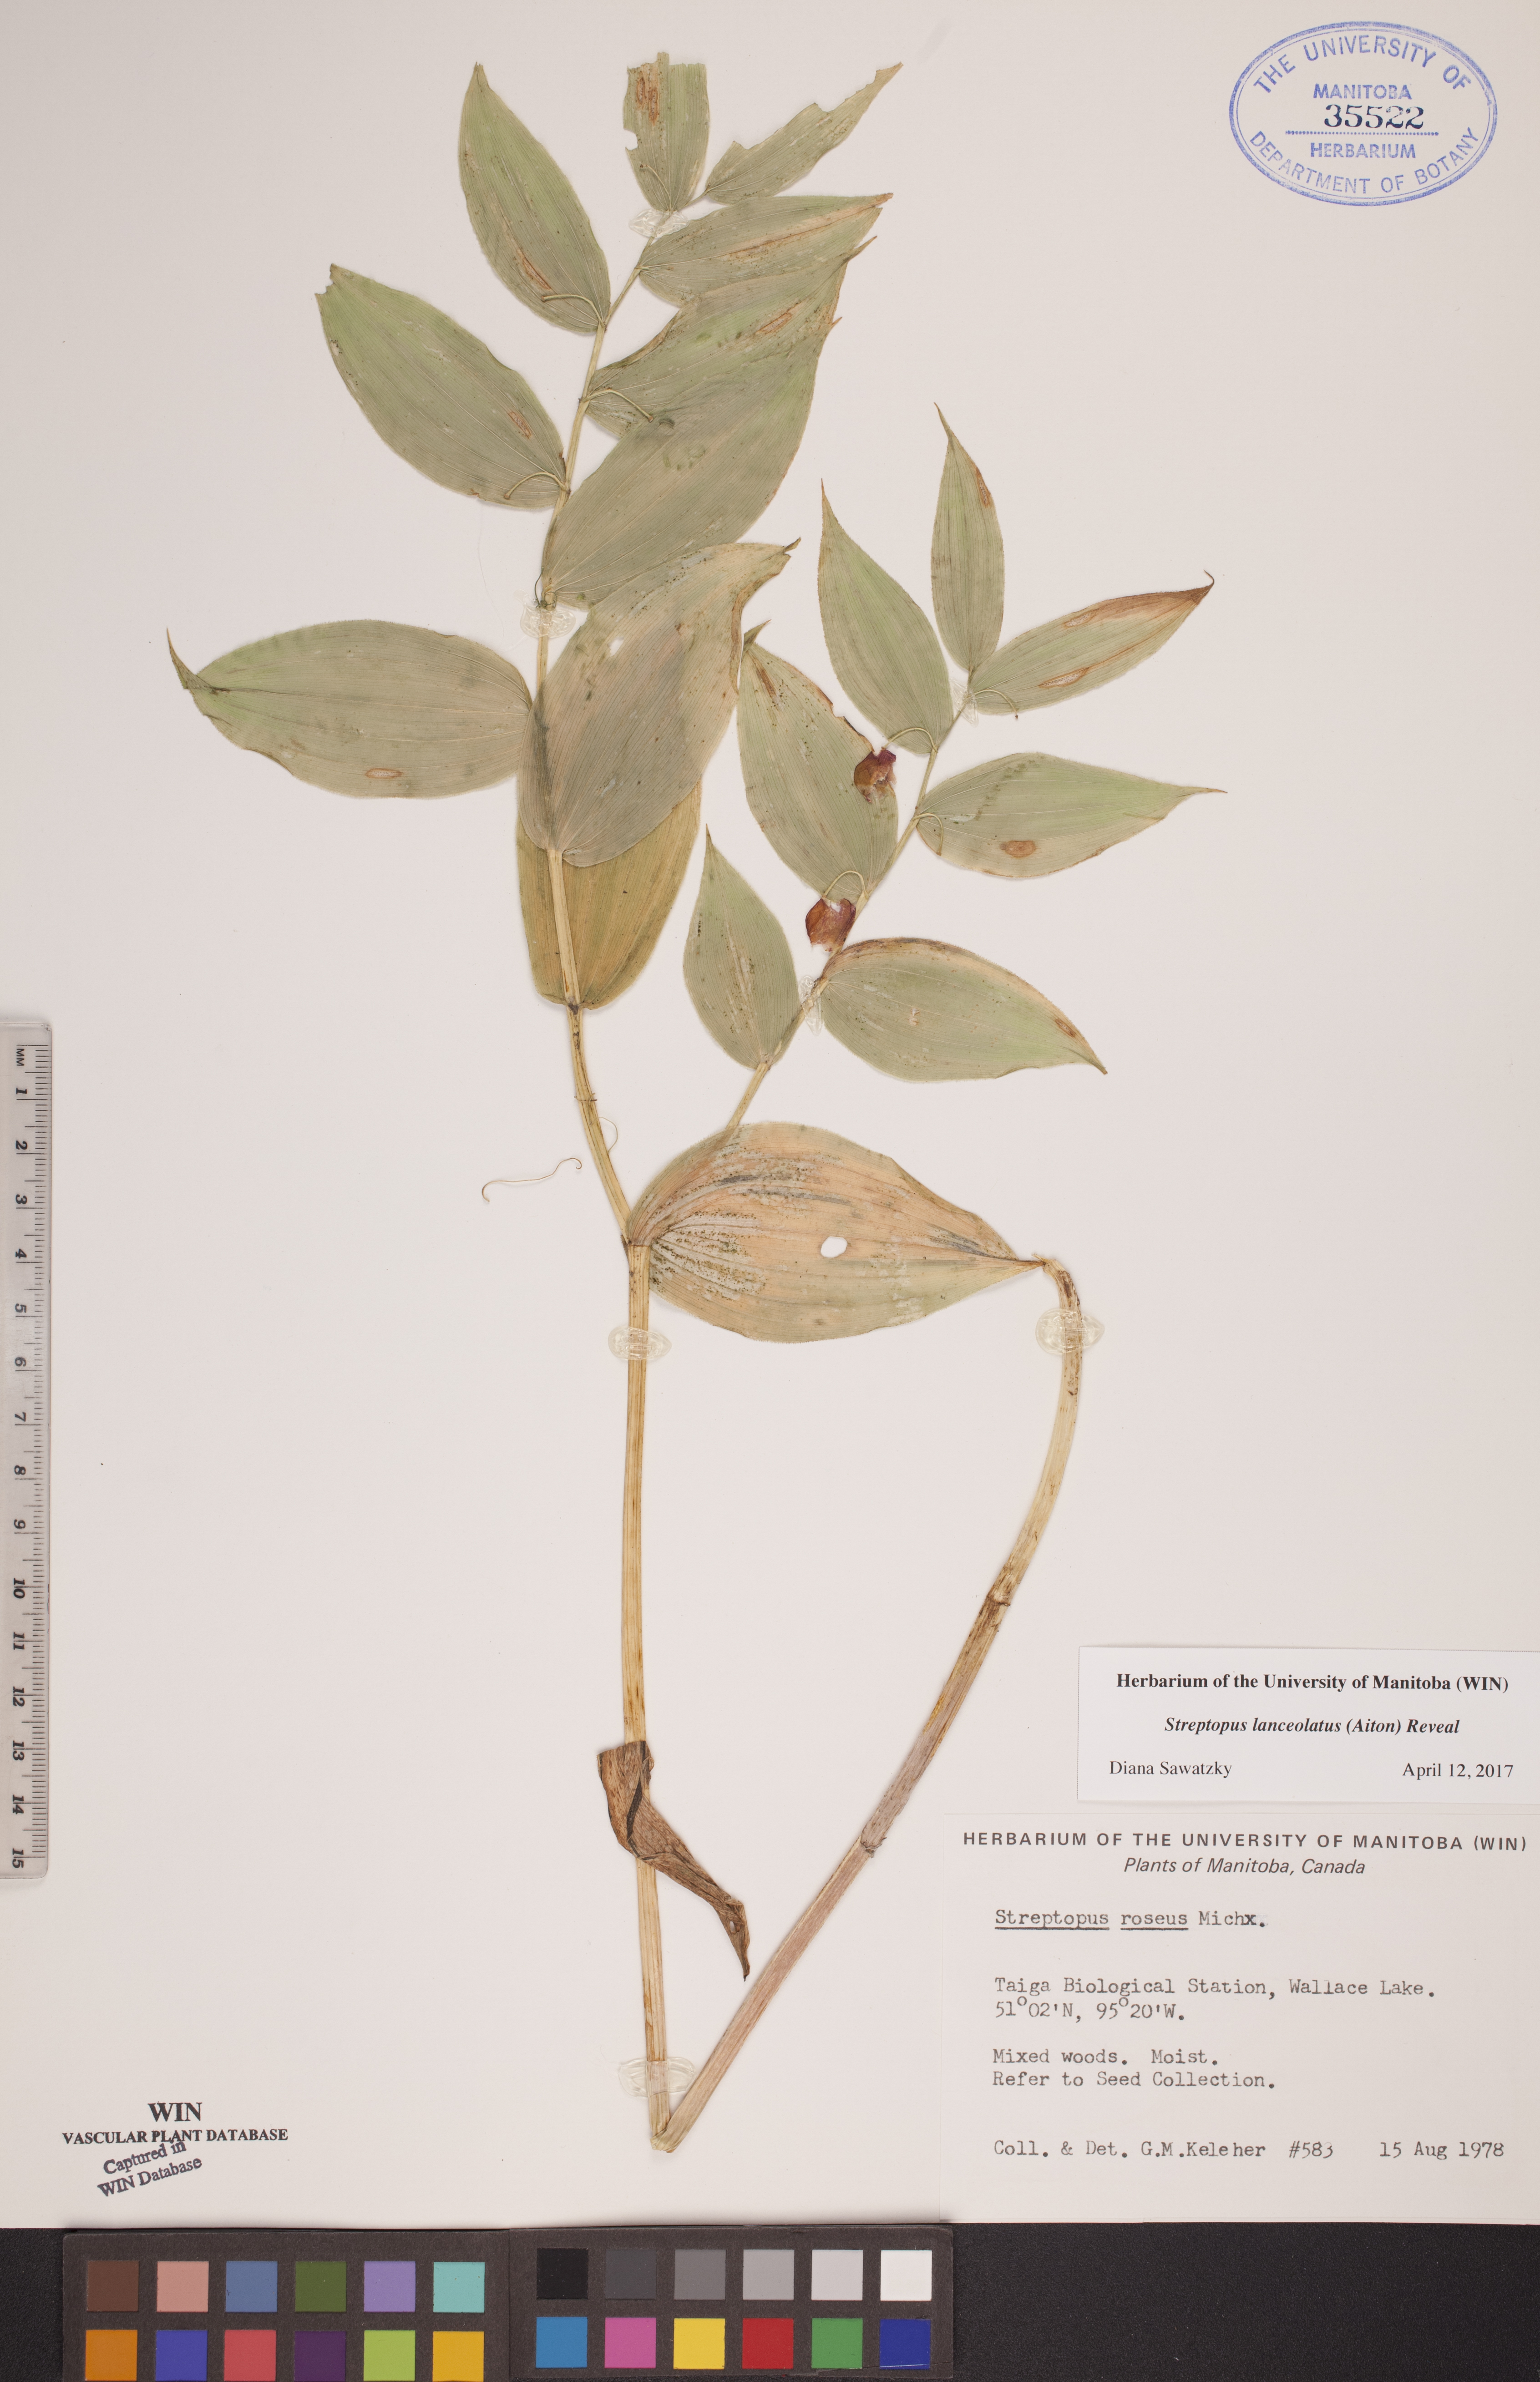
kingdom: Plantae
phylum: Tracheophyta
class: Liliopsida
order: Liliales
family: Liliaceae
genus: Streptopus
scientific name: Streptopus lanceolatus
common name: Rose mandarin
